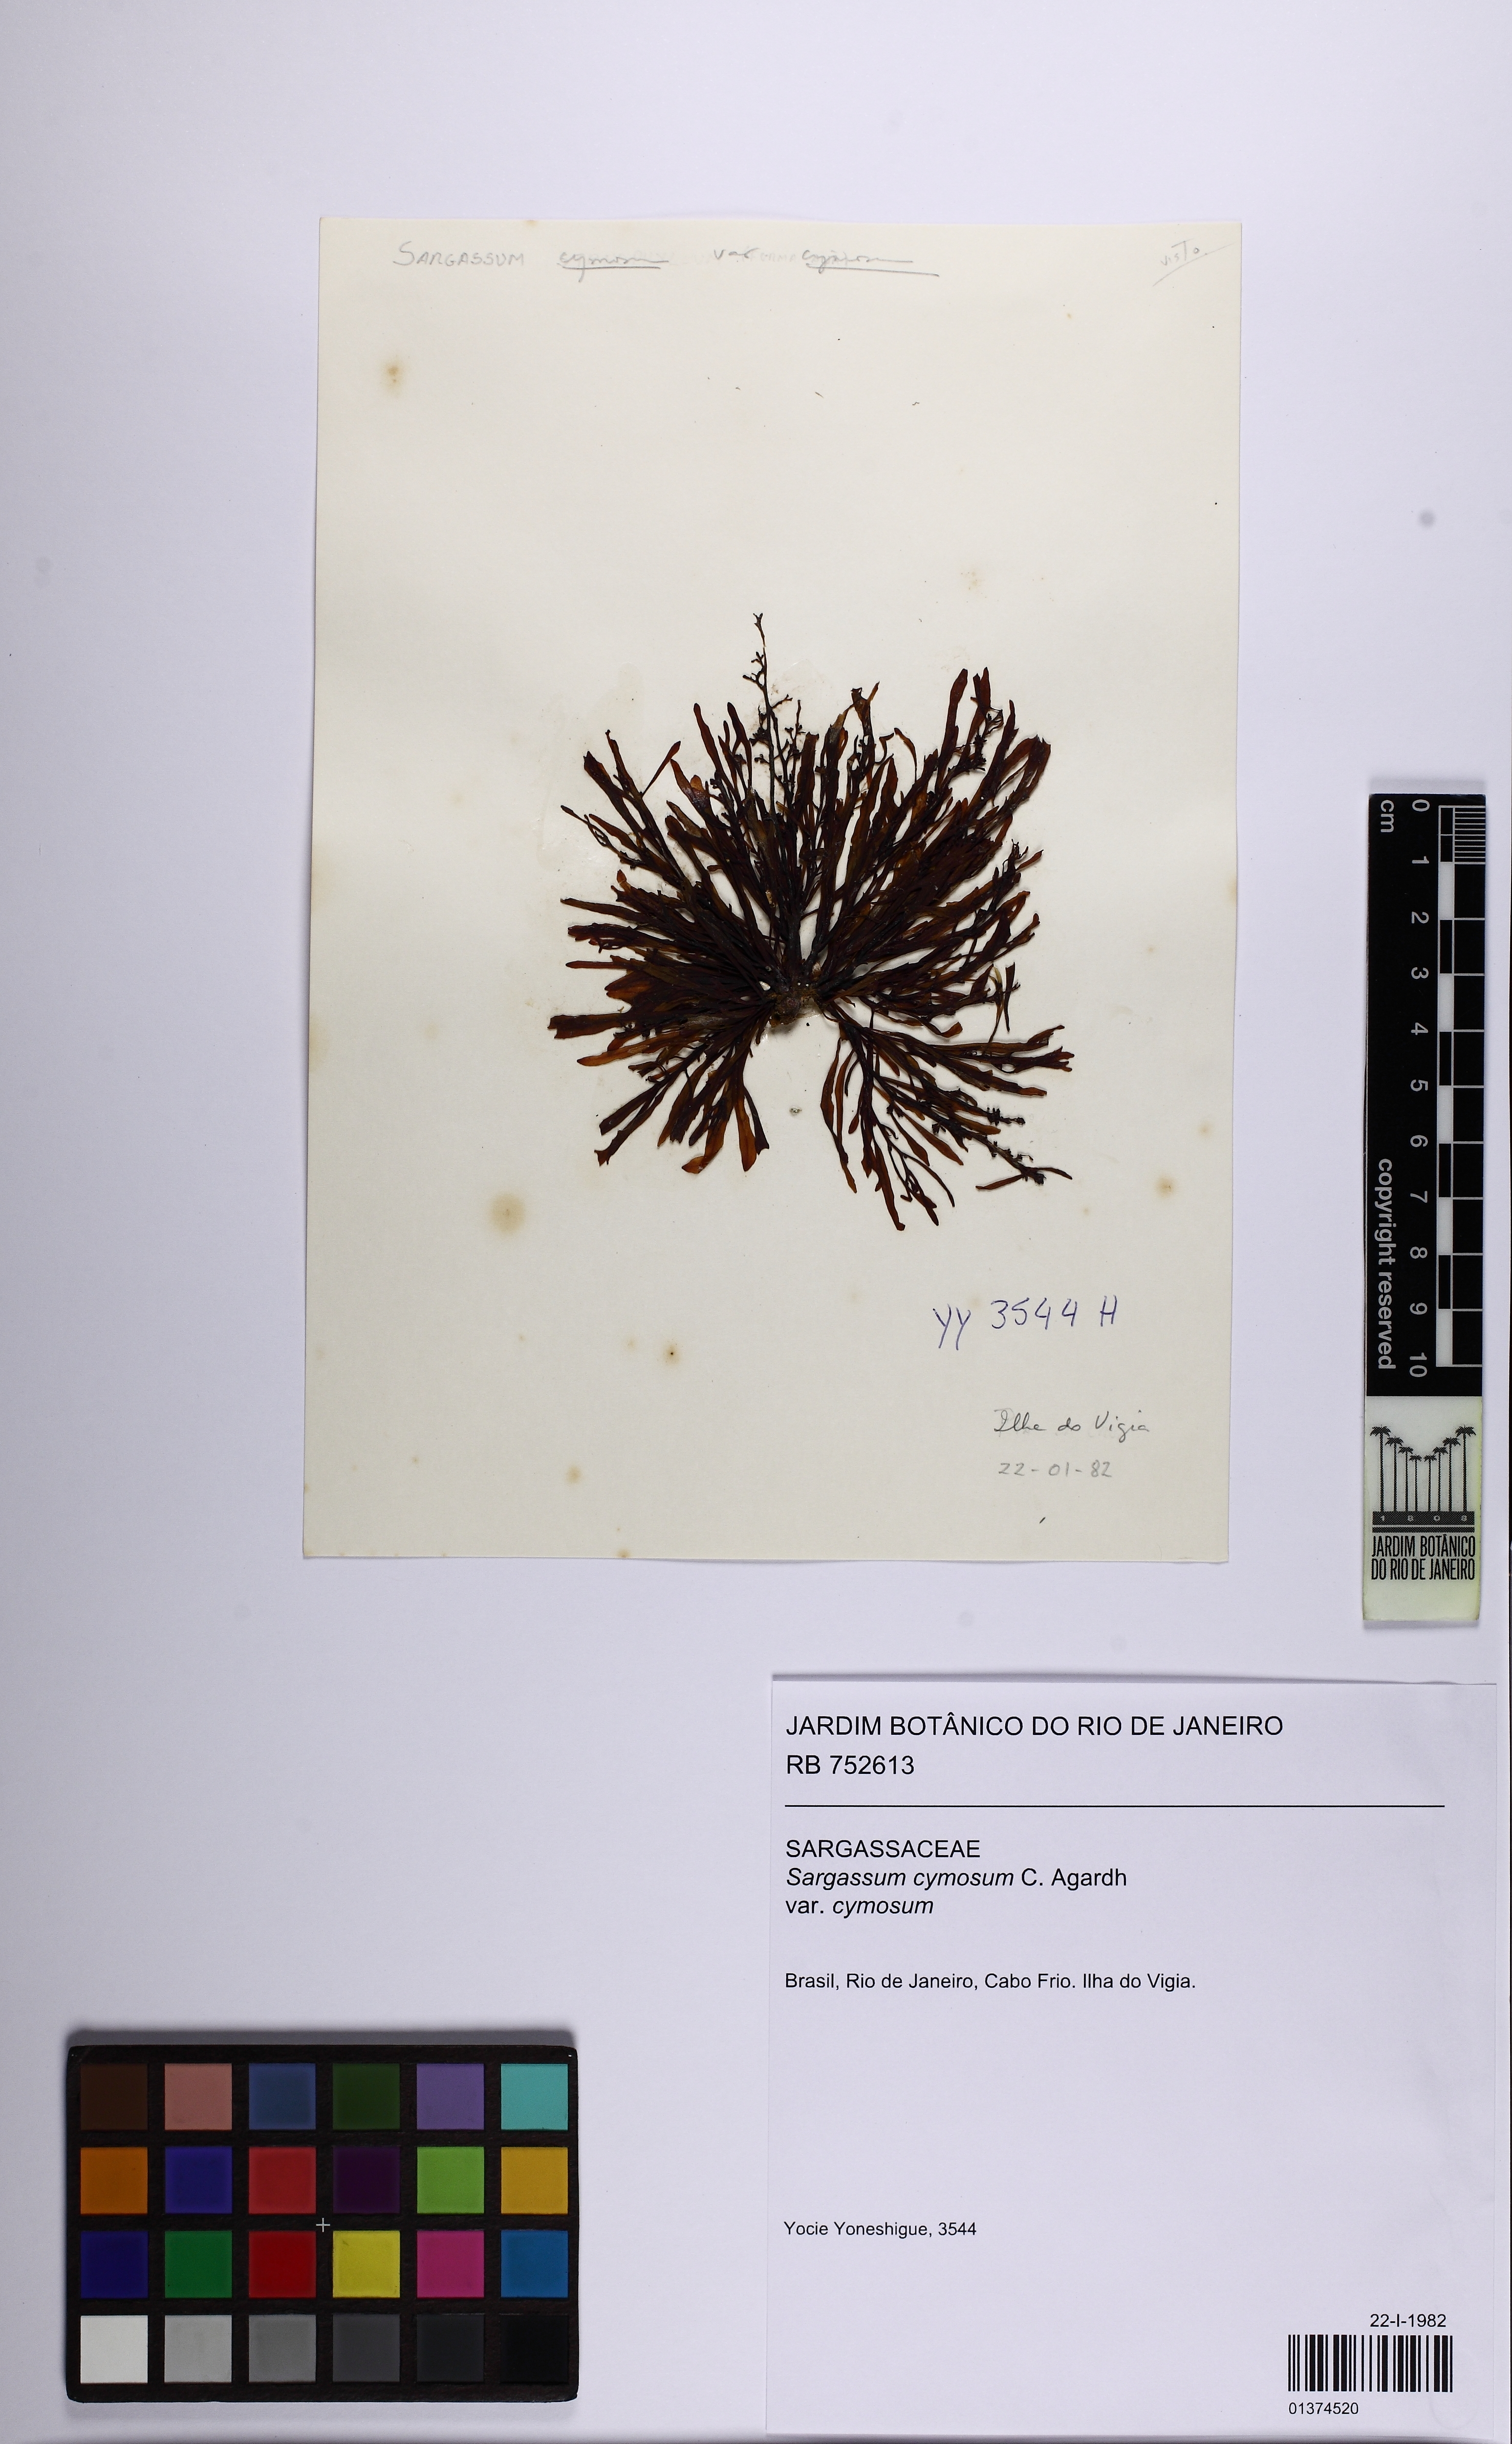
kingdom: Chromista
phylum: Ochrophyta
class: Phaeophyceae
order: Fucales
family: Sargassaceae
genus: Sargassum
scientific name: Sargassum cymosum
